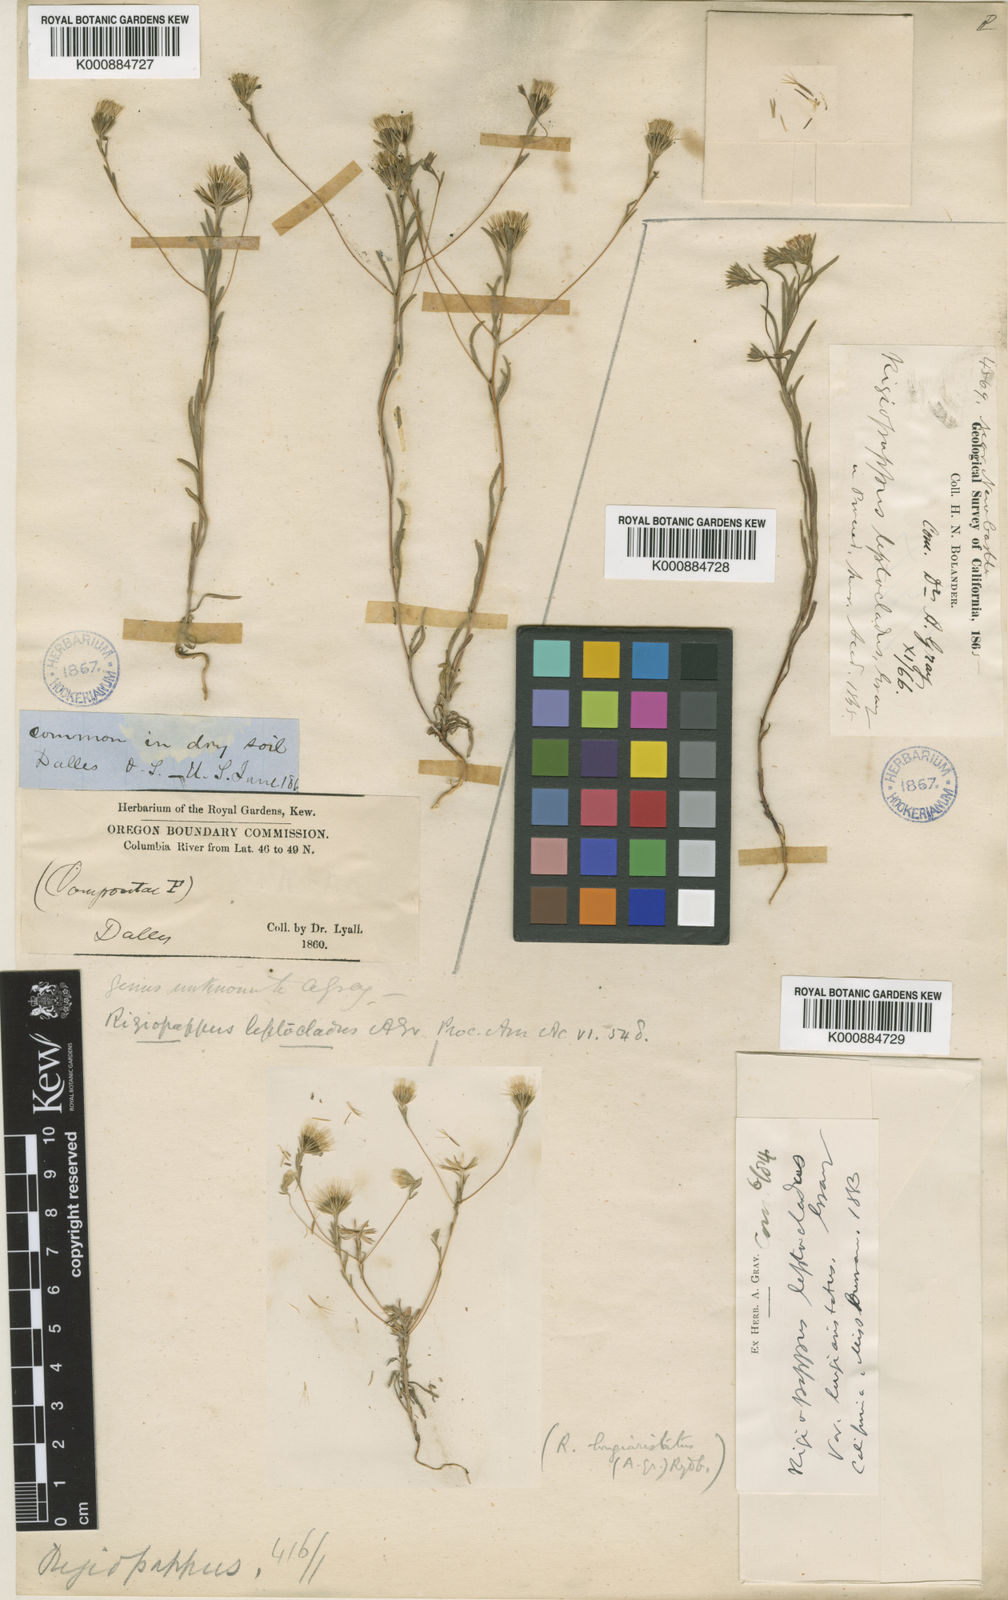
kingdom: Plantae
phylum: Tracheophyta
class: Magnoliopsida
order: Asterales
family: Asteraceae
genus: Rigiopappus
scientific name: Rigiopappus
